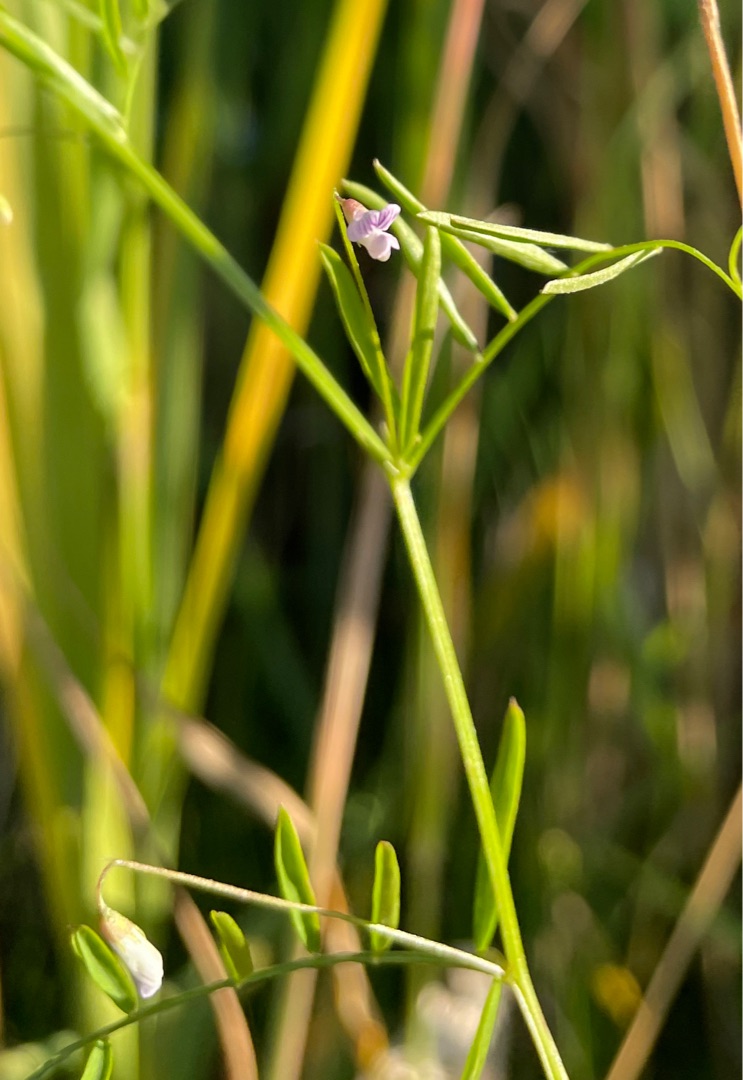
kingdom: Plantae
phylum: Tracheophyta
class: Magnoliopsida
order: Fabales
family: Fabaceae
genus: Vicia
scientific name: Vicia tetrasperma
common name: Tadder-vikke
